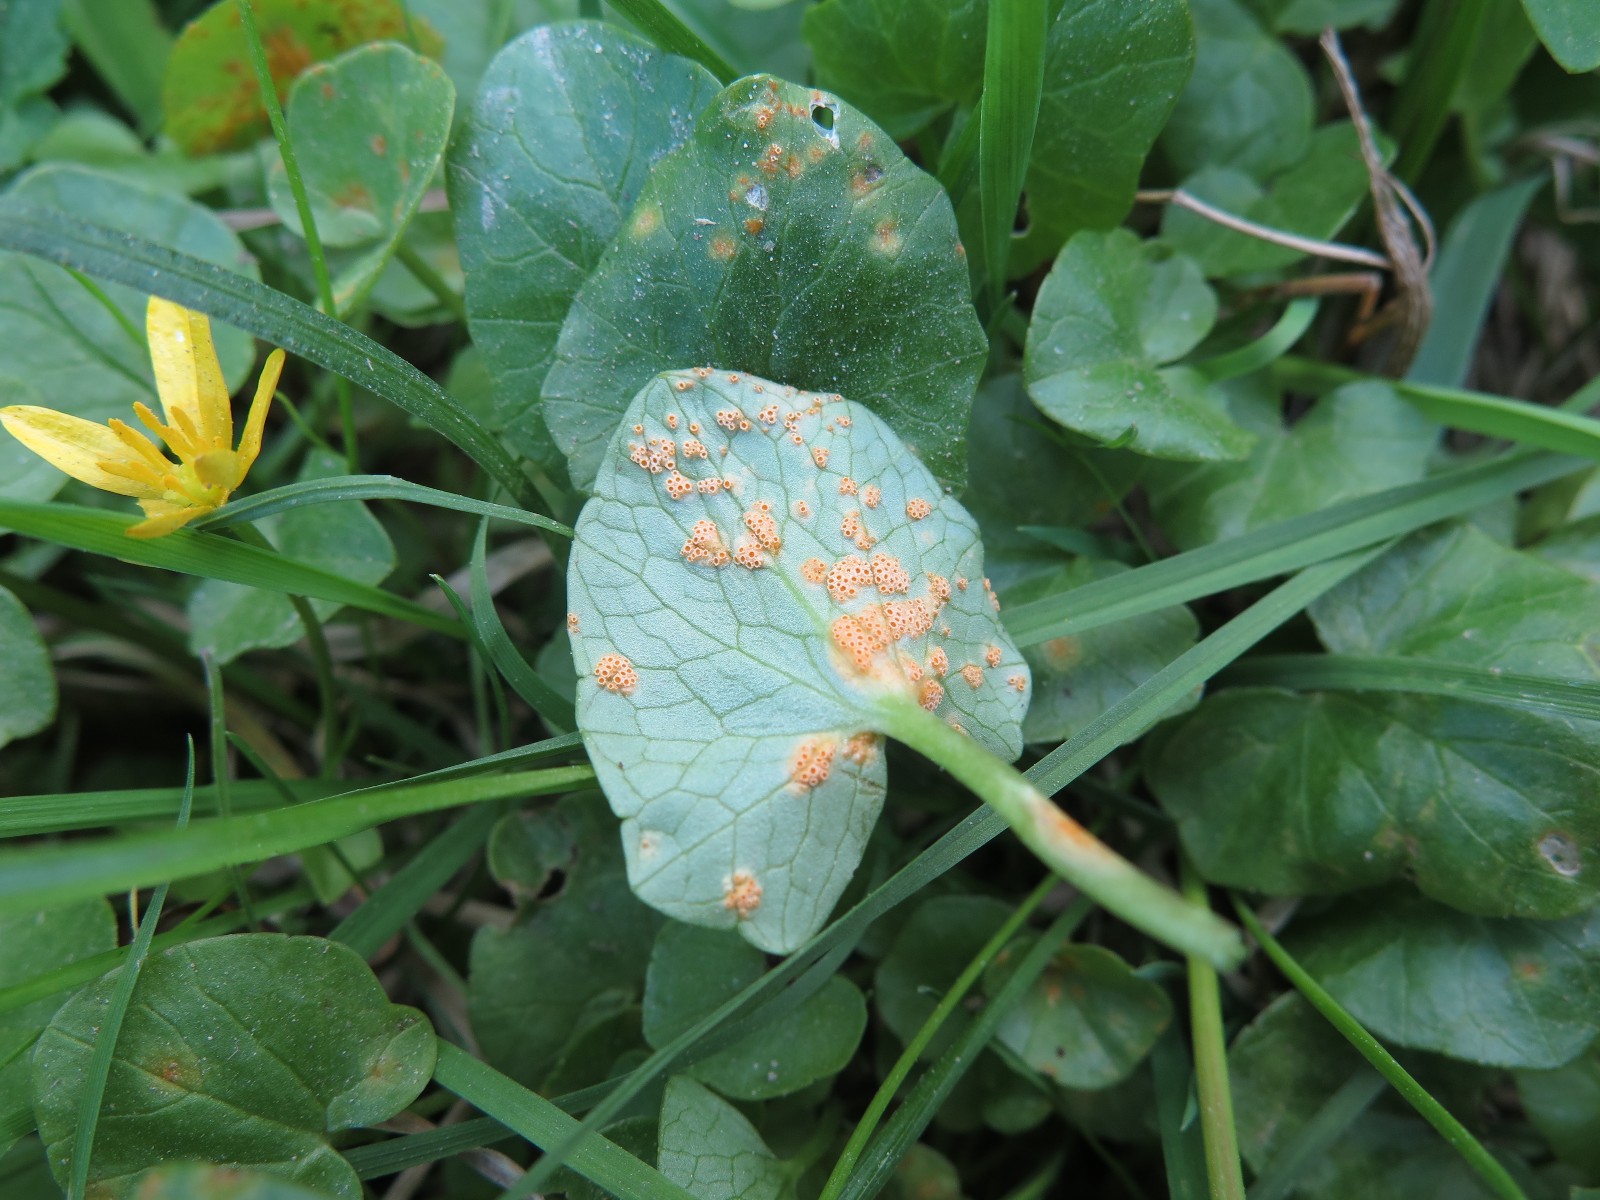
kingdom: Fungi
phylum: Basidiomycota
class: Pucciniomycetes
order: Pucciniales
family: Pucciniaceae
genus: Uromyces
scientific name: Uromyces dactylidis
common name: ranunkel-encellerust
